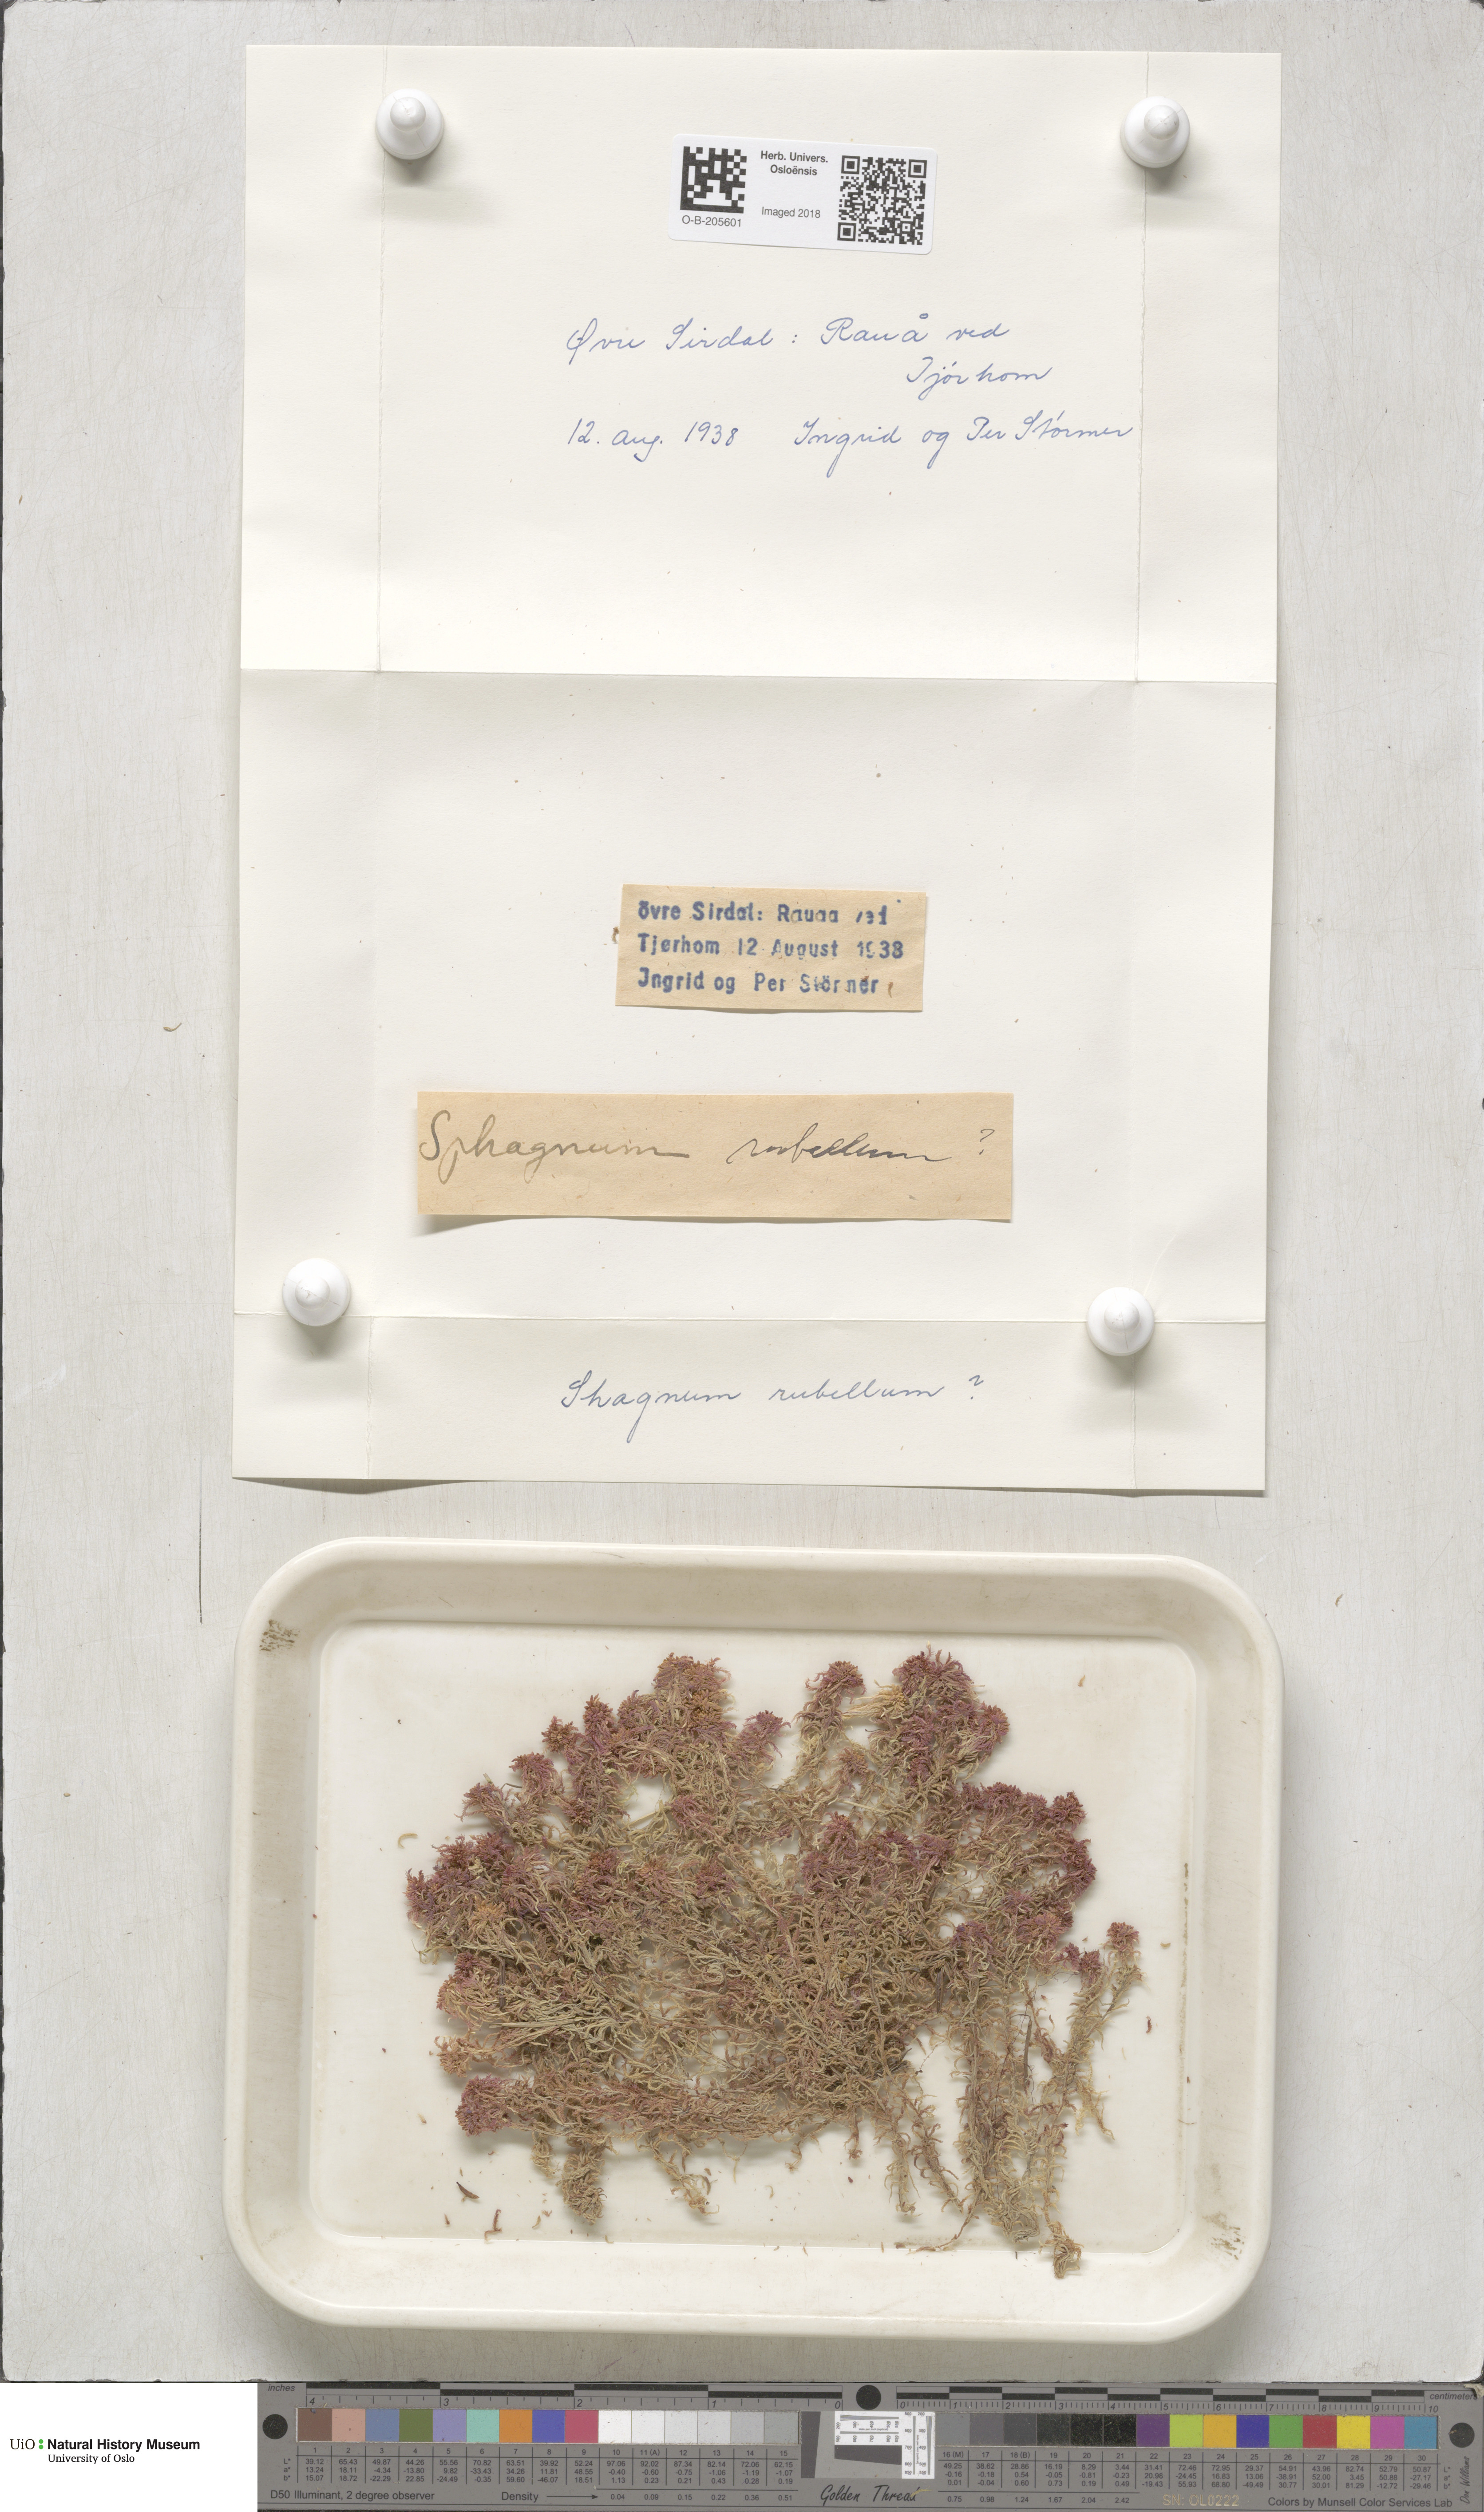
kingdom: Plantae
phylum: Bryophyta
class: Sphagnopsida
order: Sphagnales
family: Sphagnaceae
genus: Sphagnum
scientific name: Sphagnum rubellum
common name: Red peat moss
